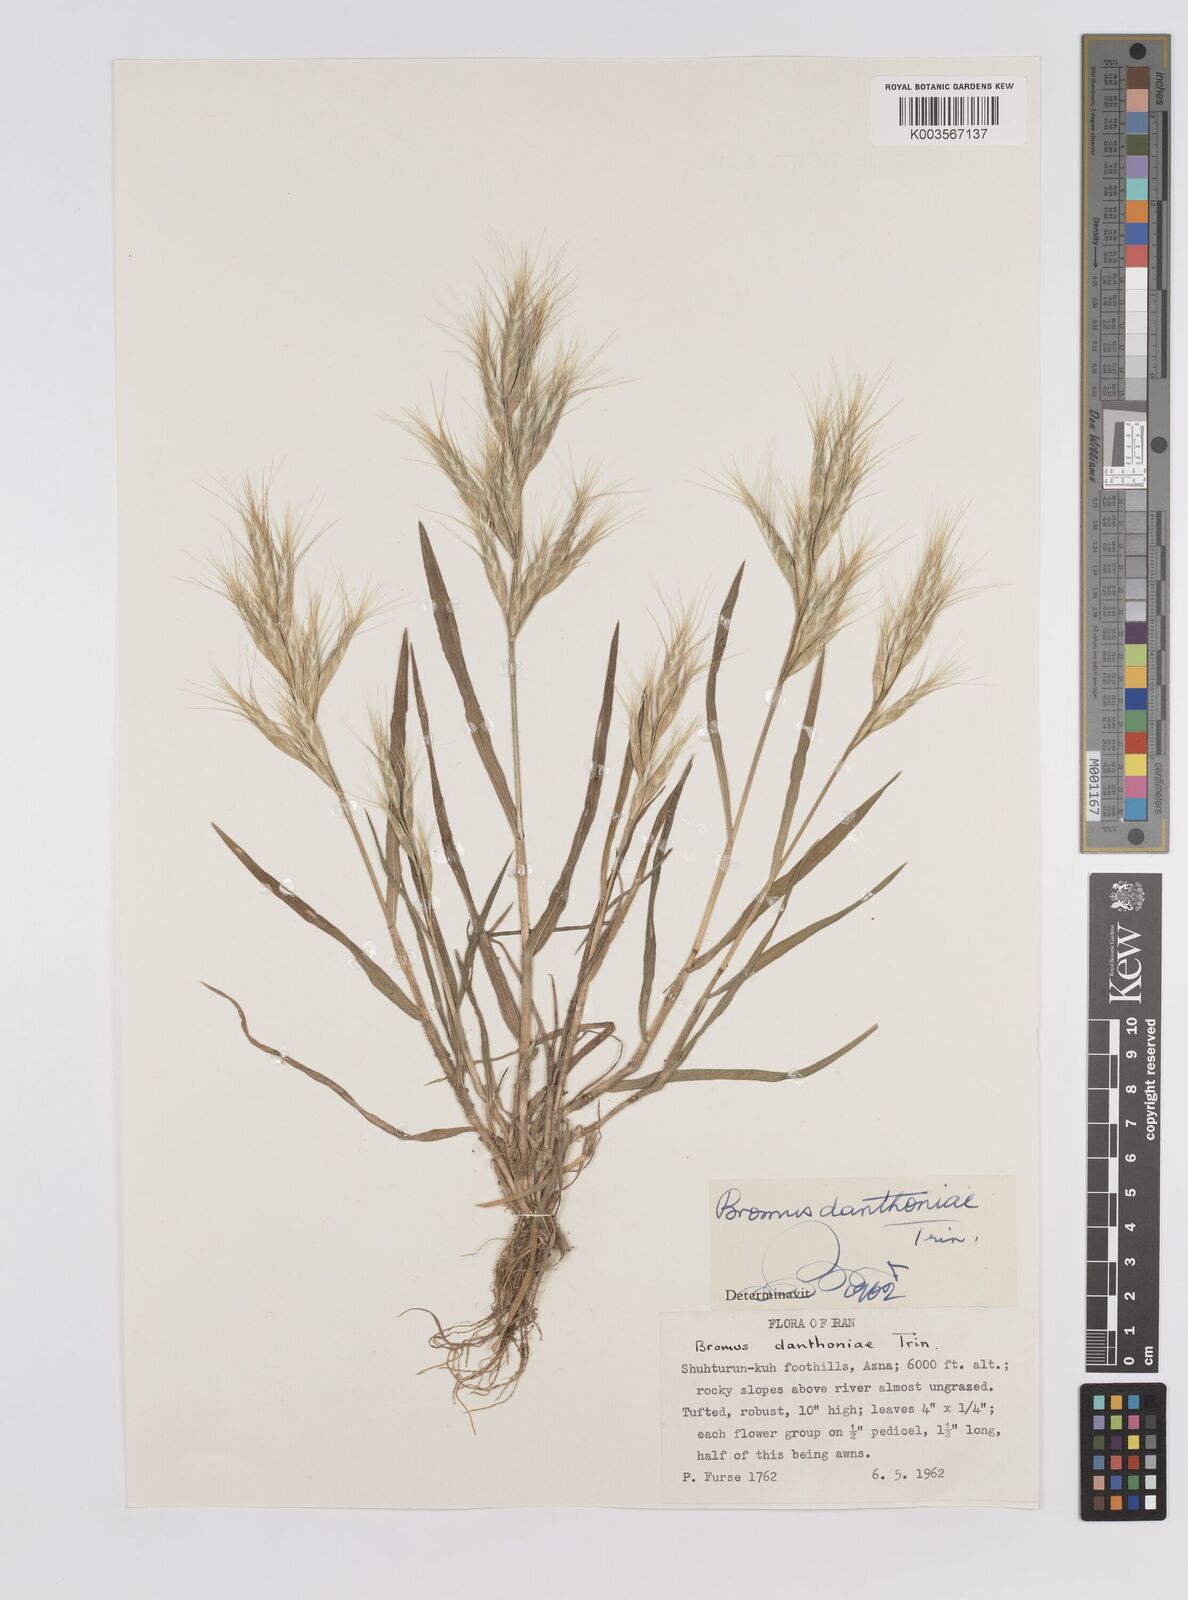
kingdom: Plantae
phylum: Tracheophyta
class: Liliopsida
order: Poales
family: Poaceae
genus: Bromus
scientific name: Bromus danthoniae
